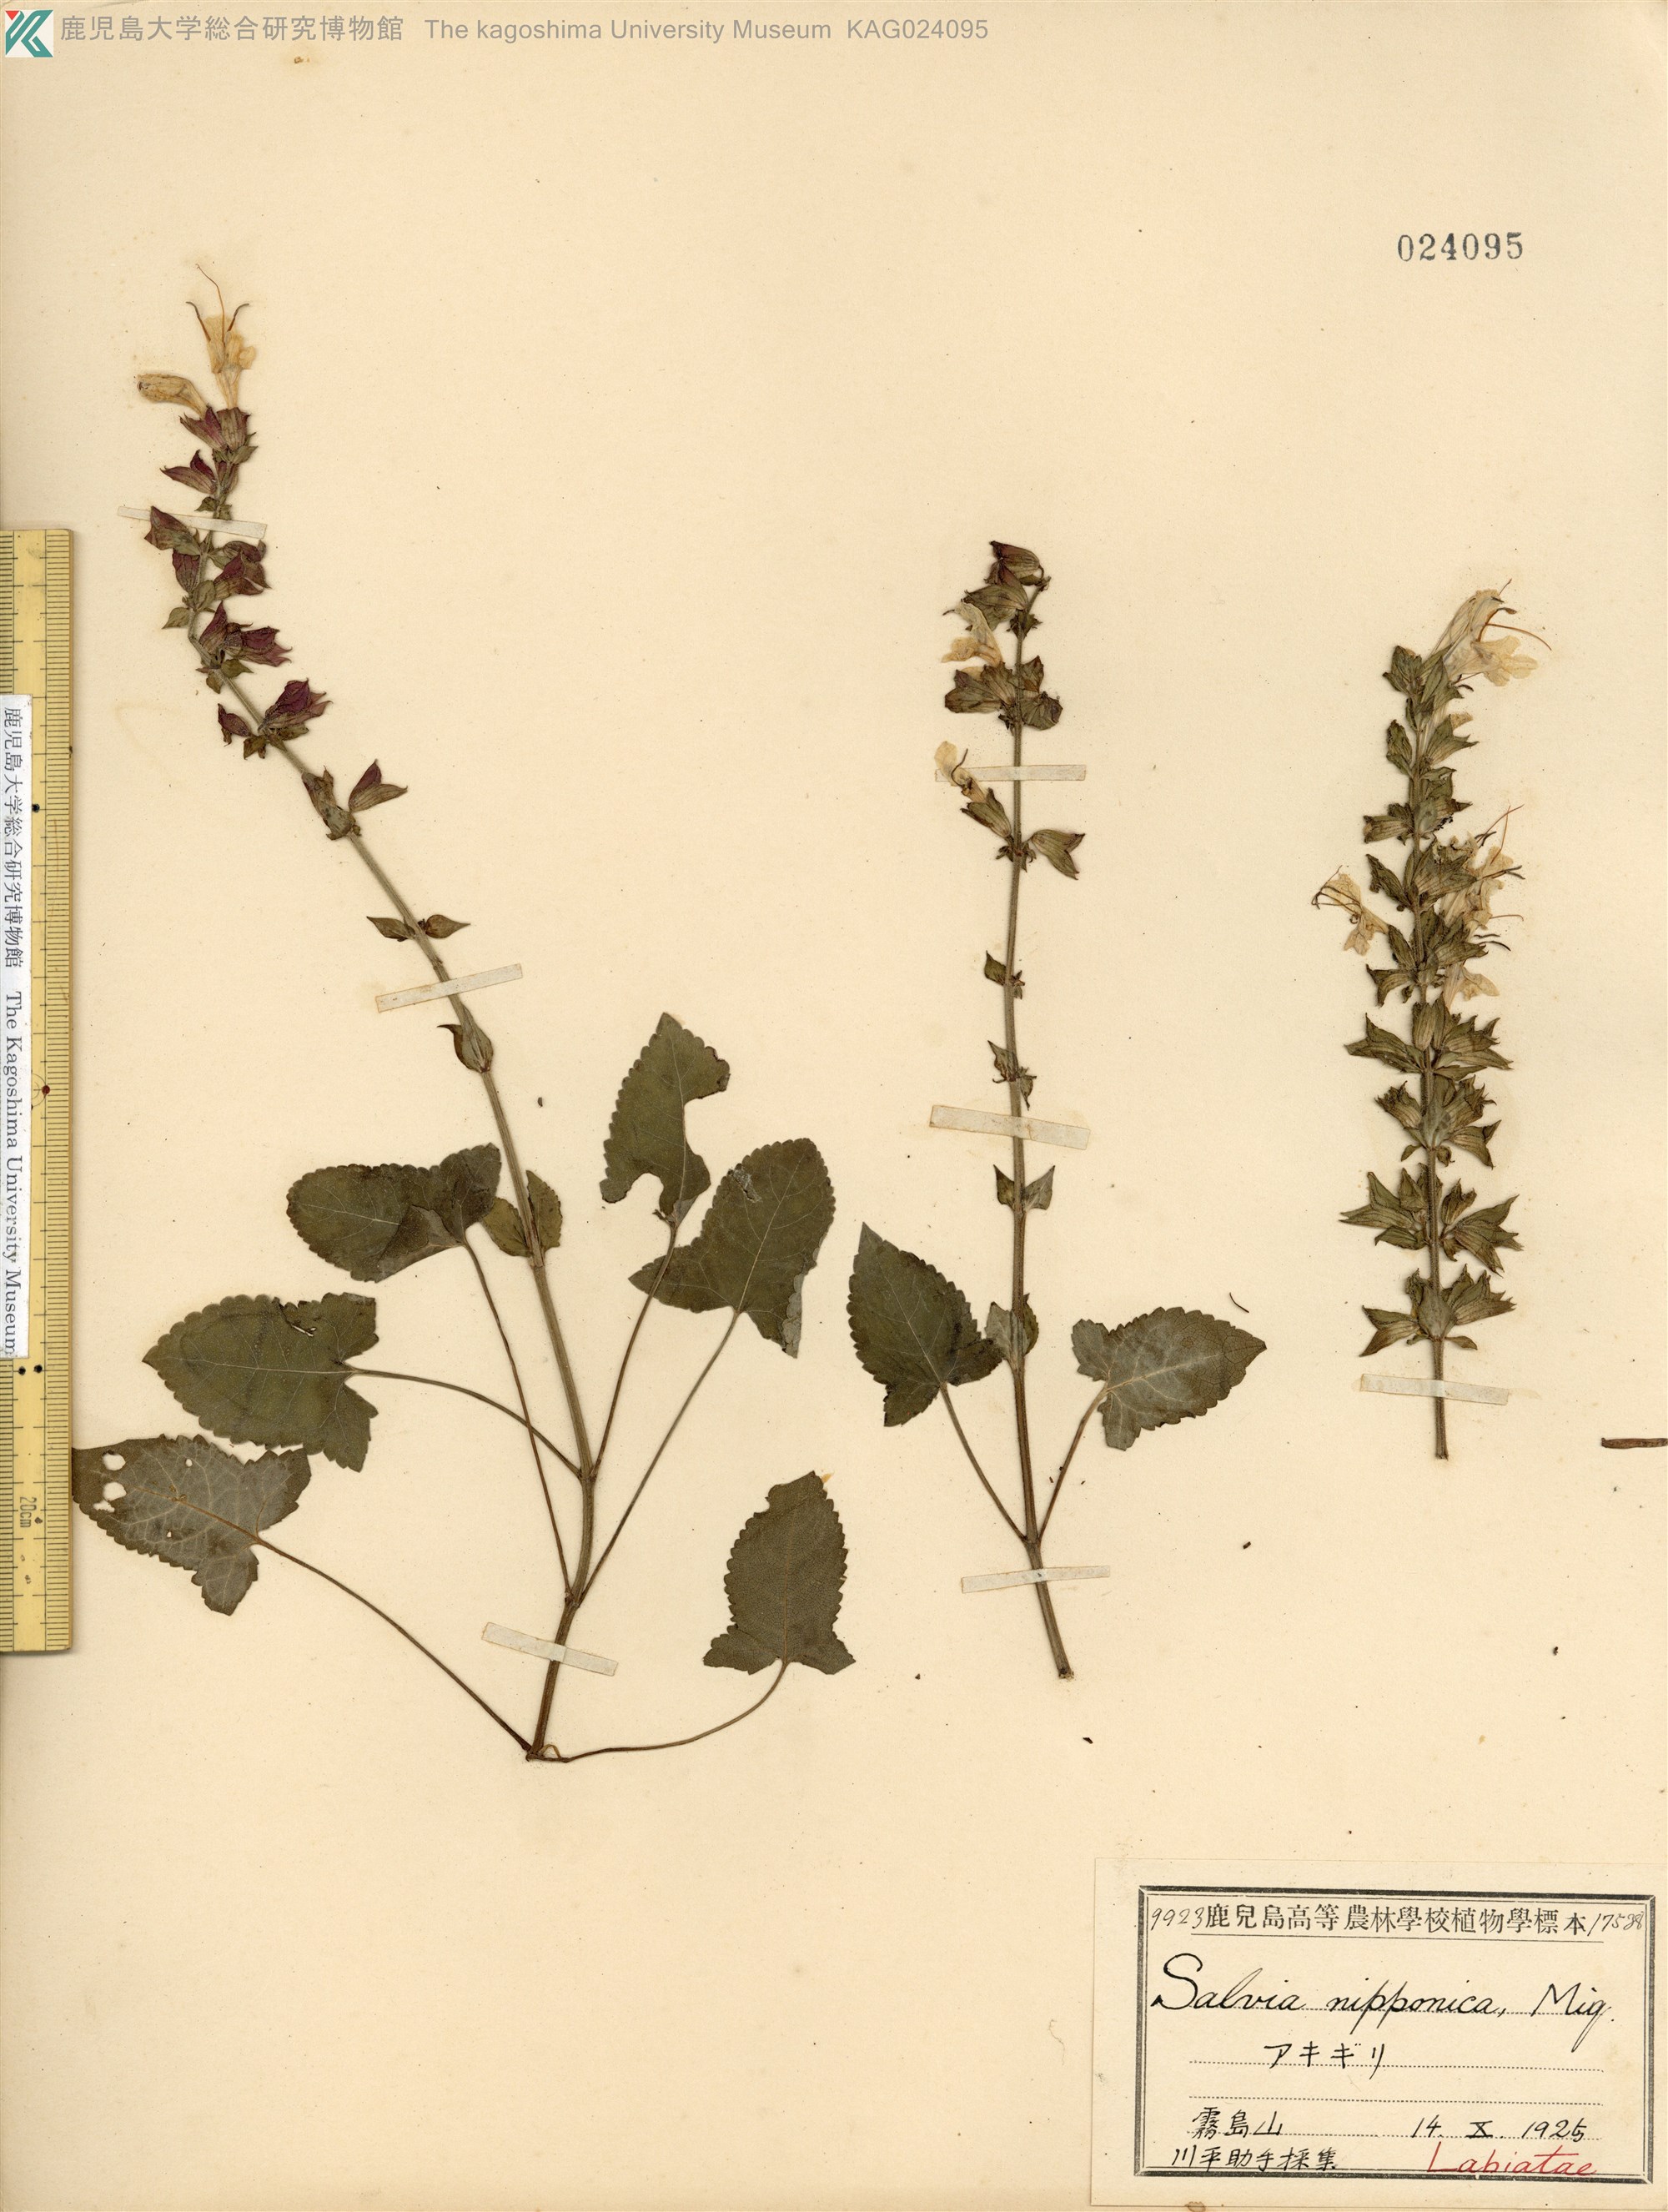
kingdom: Plantae
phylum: Tracheophyta
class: Magnoliopsida
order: Lamiales
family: Lamiaceae
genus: Salvia
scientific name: Salvia nipponica
